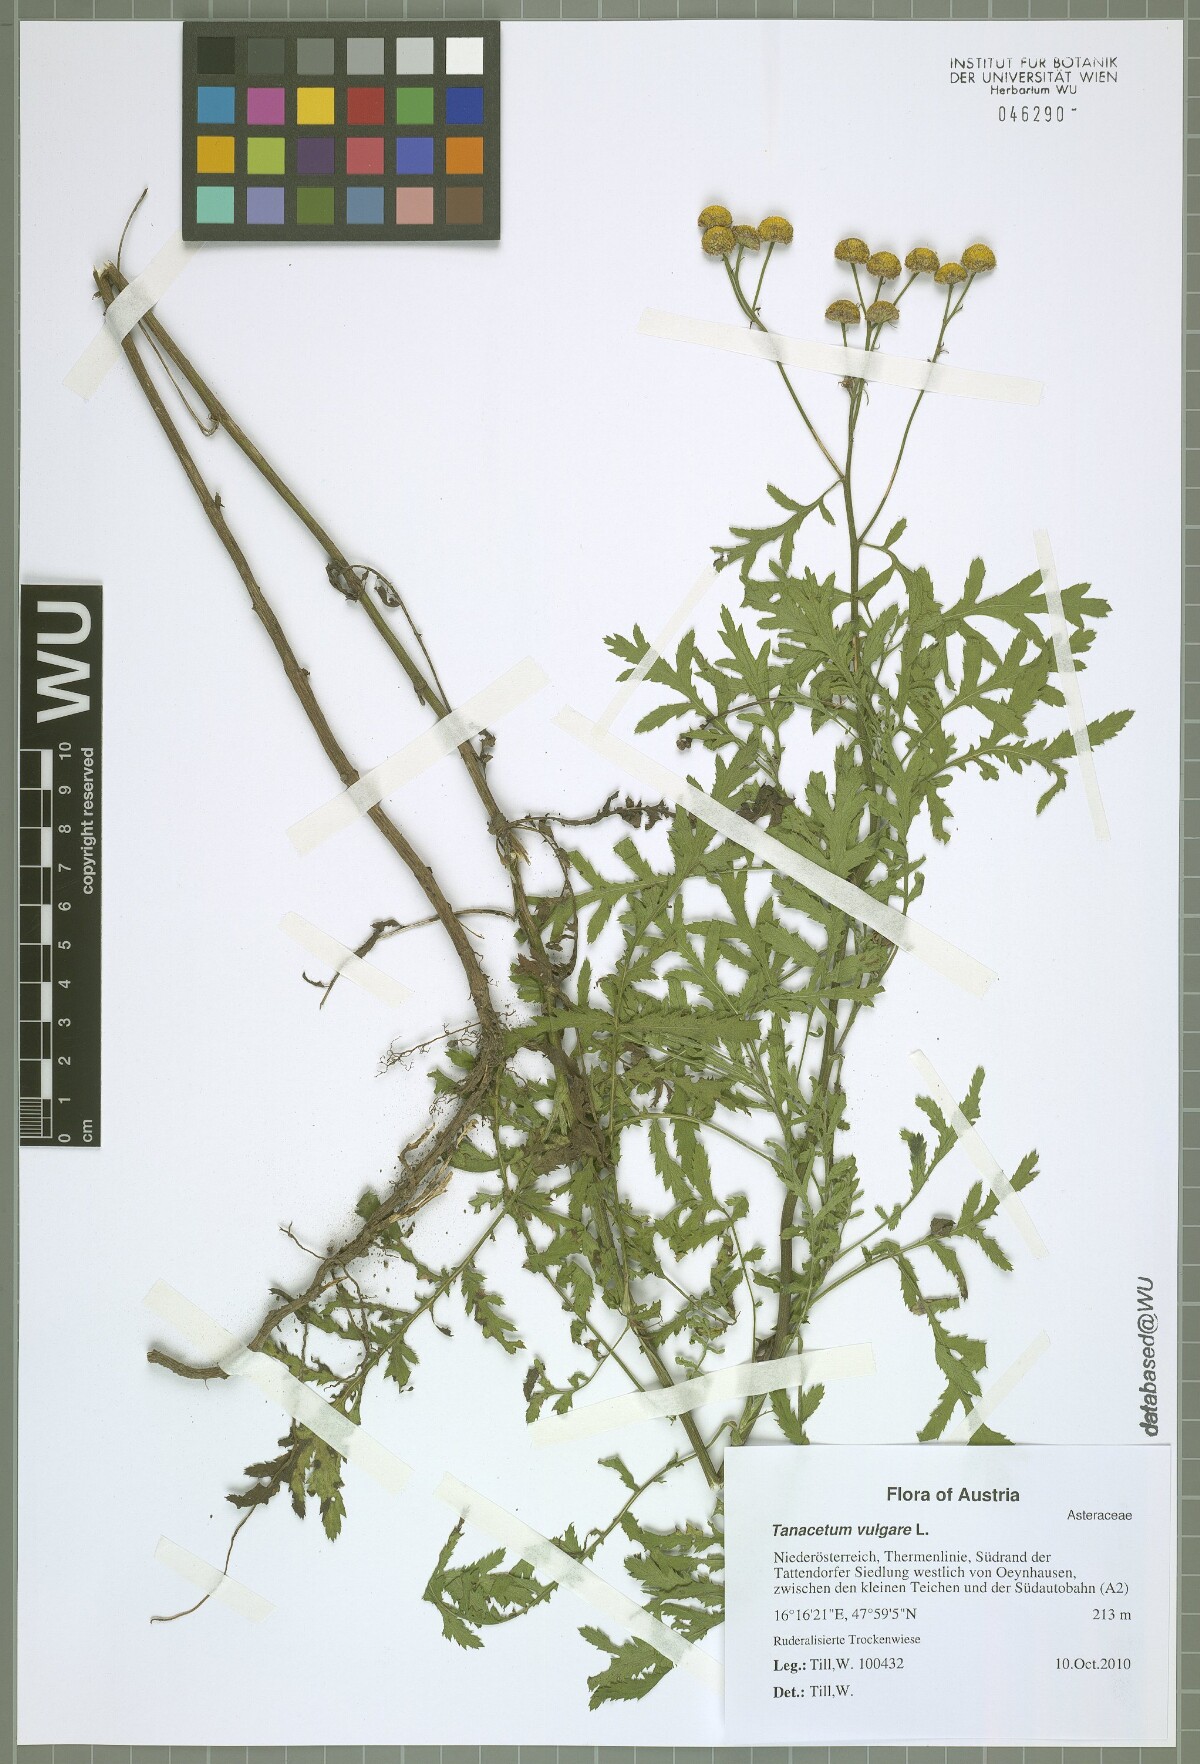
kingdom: Plantae
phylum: Tracheophyta
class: Magnoliopsida
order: Asterales
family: Asteraceae
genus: Tanacetum
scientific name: Tanacetum vulgare
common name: Common tansy
